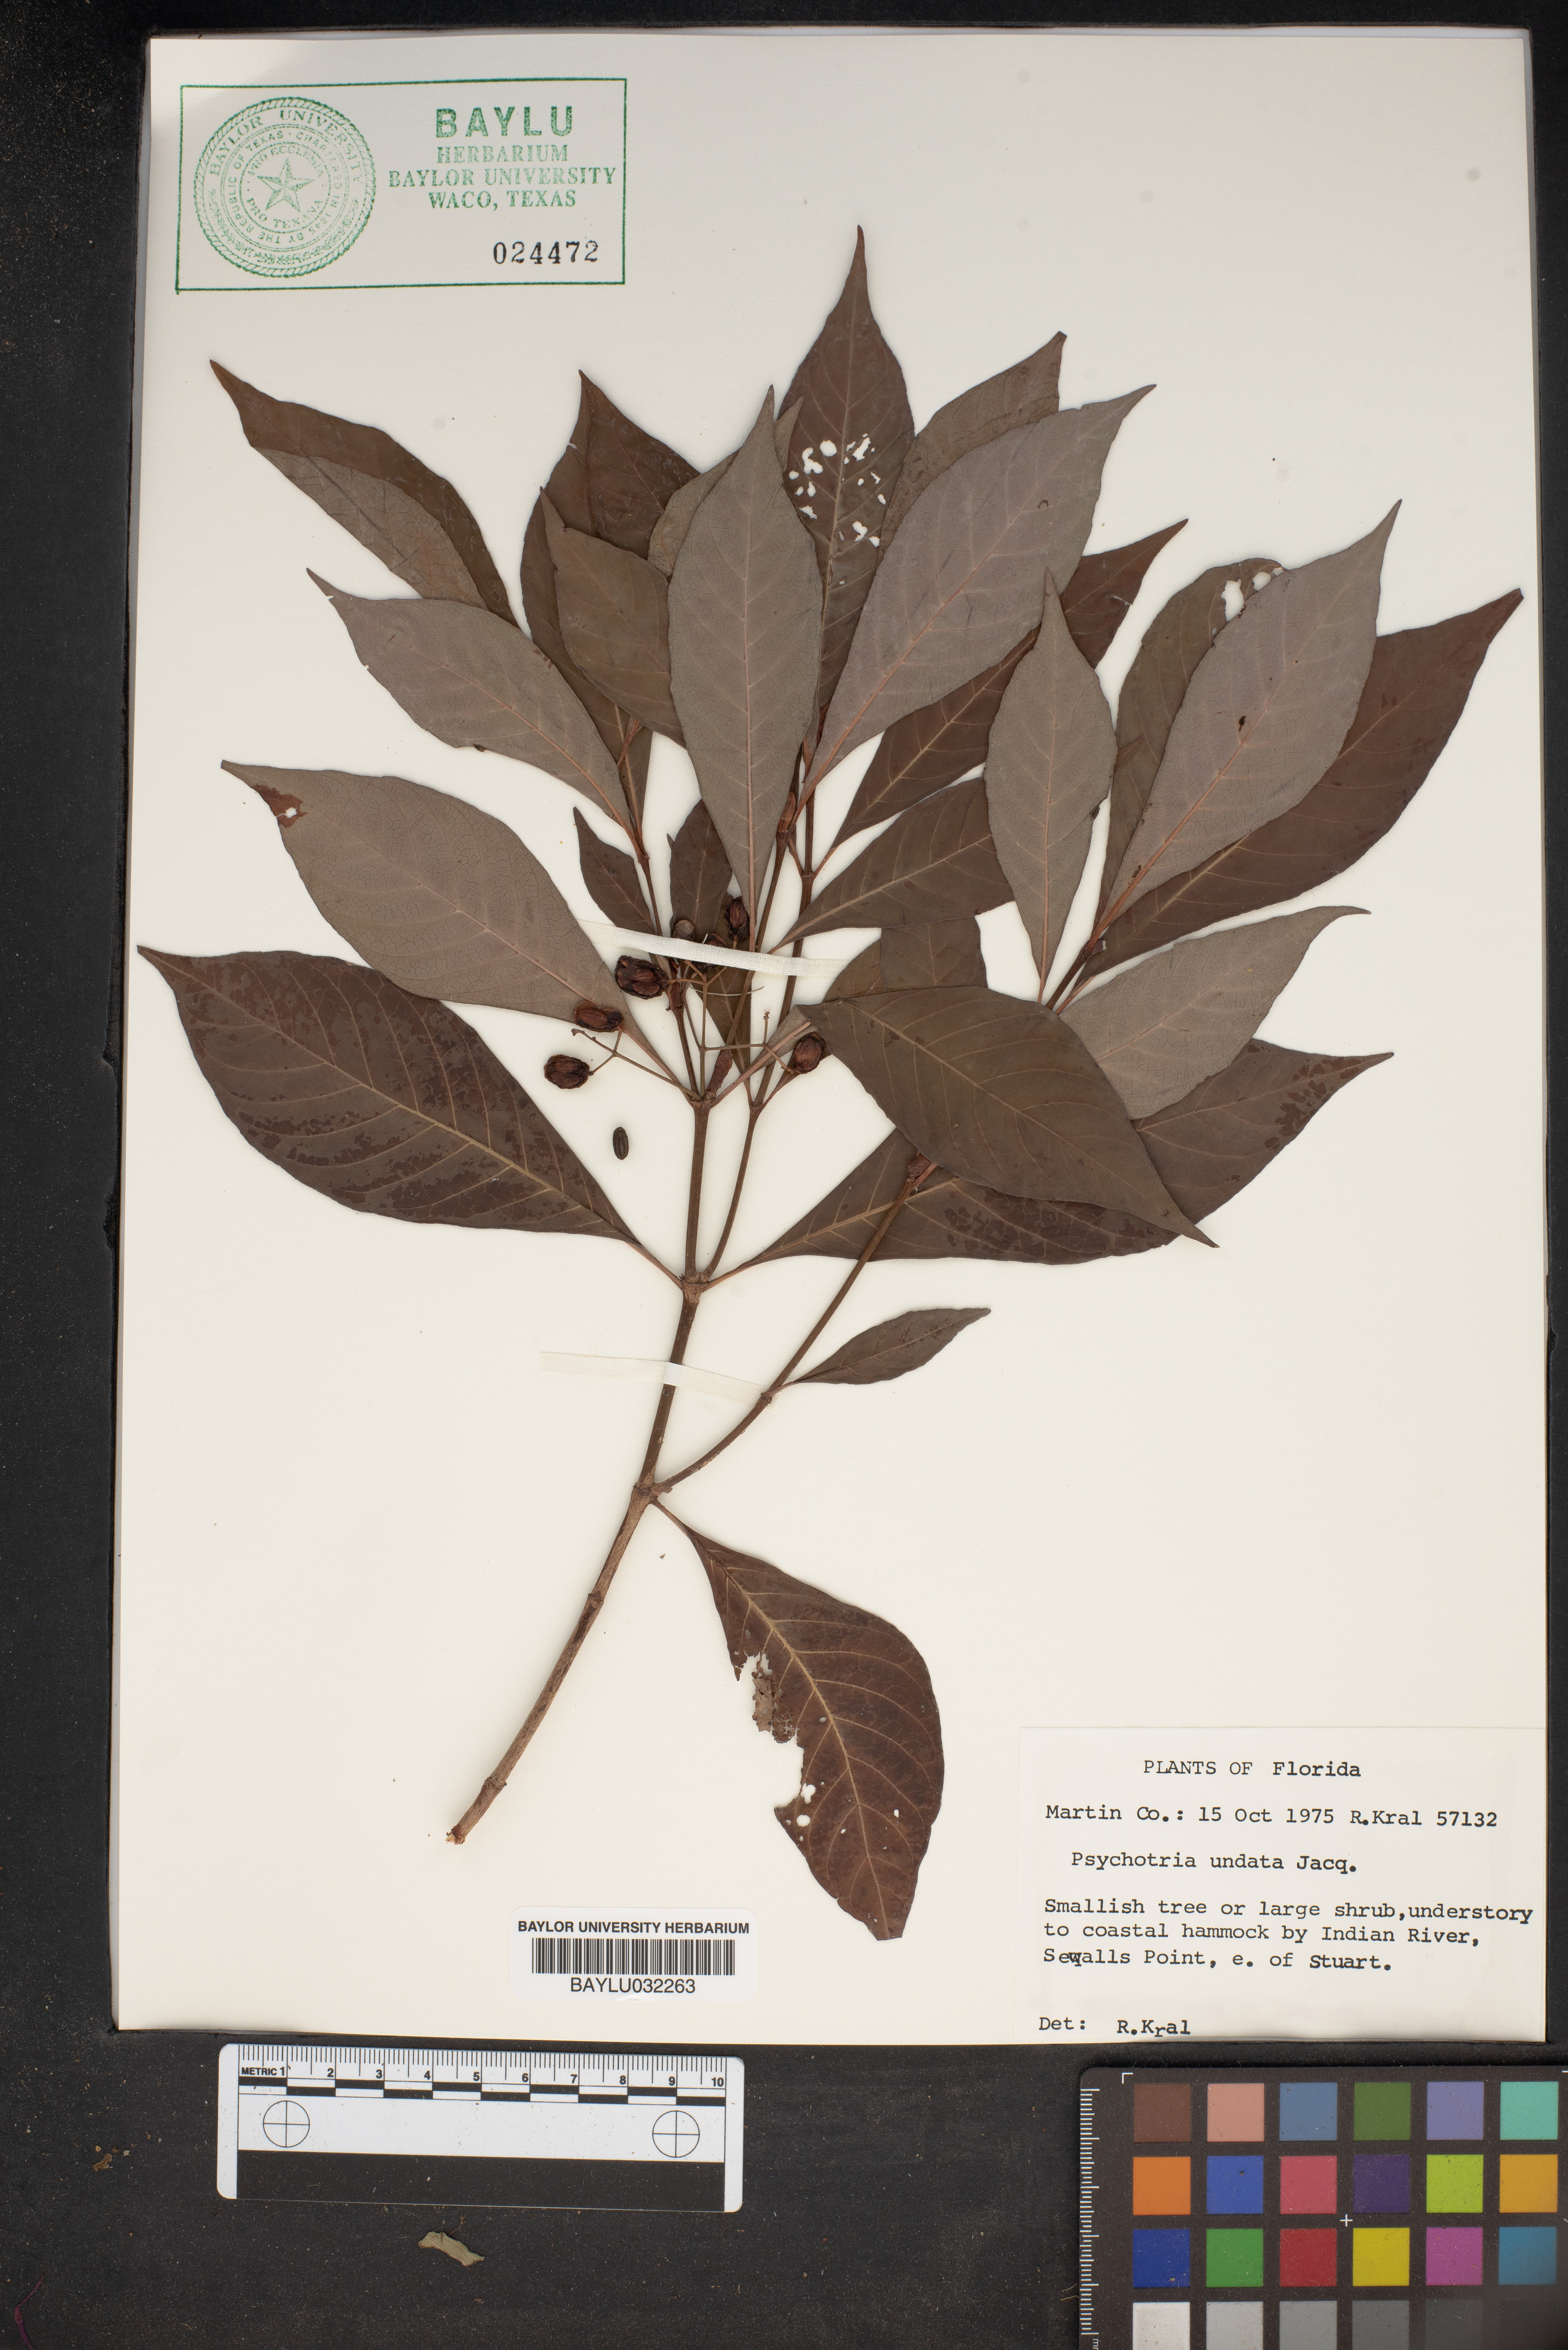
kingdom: Plantae
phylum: Tracheophyta
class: Magnoliopsida
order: Gentianales
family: Rubiaceae
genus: Psychotria
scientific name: Psychotria nervosa
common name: Bastard cankerberry
